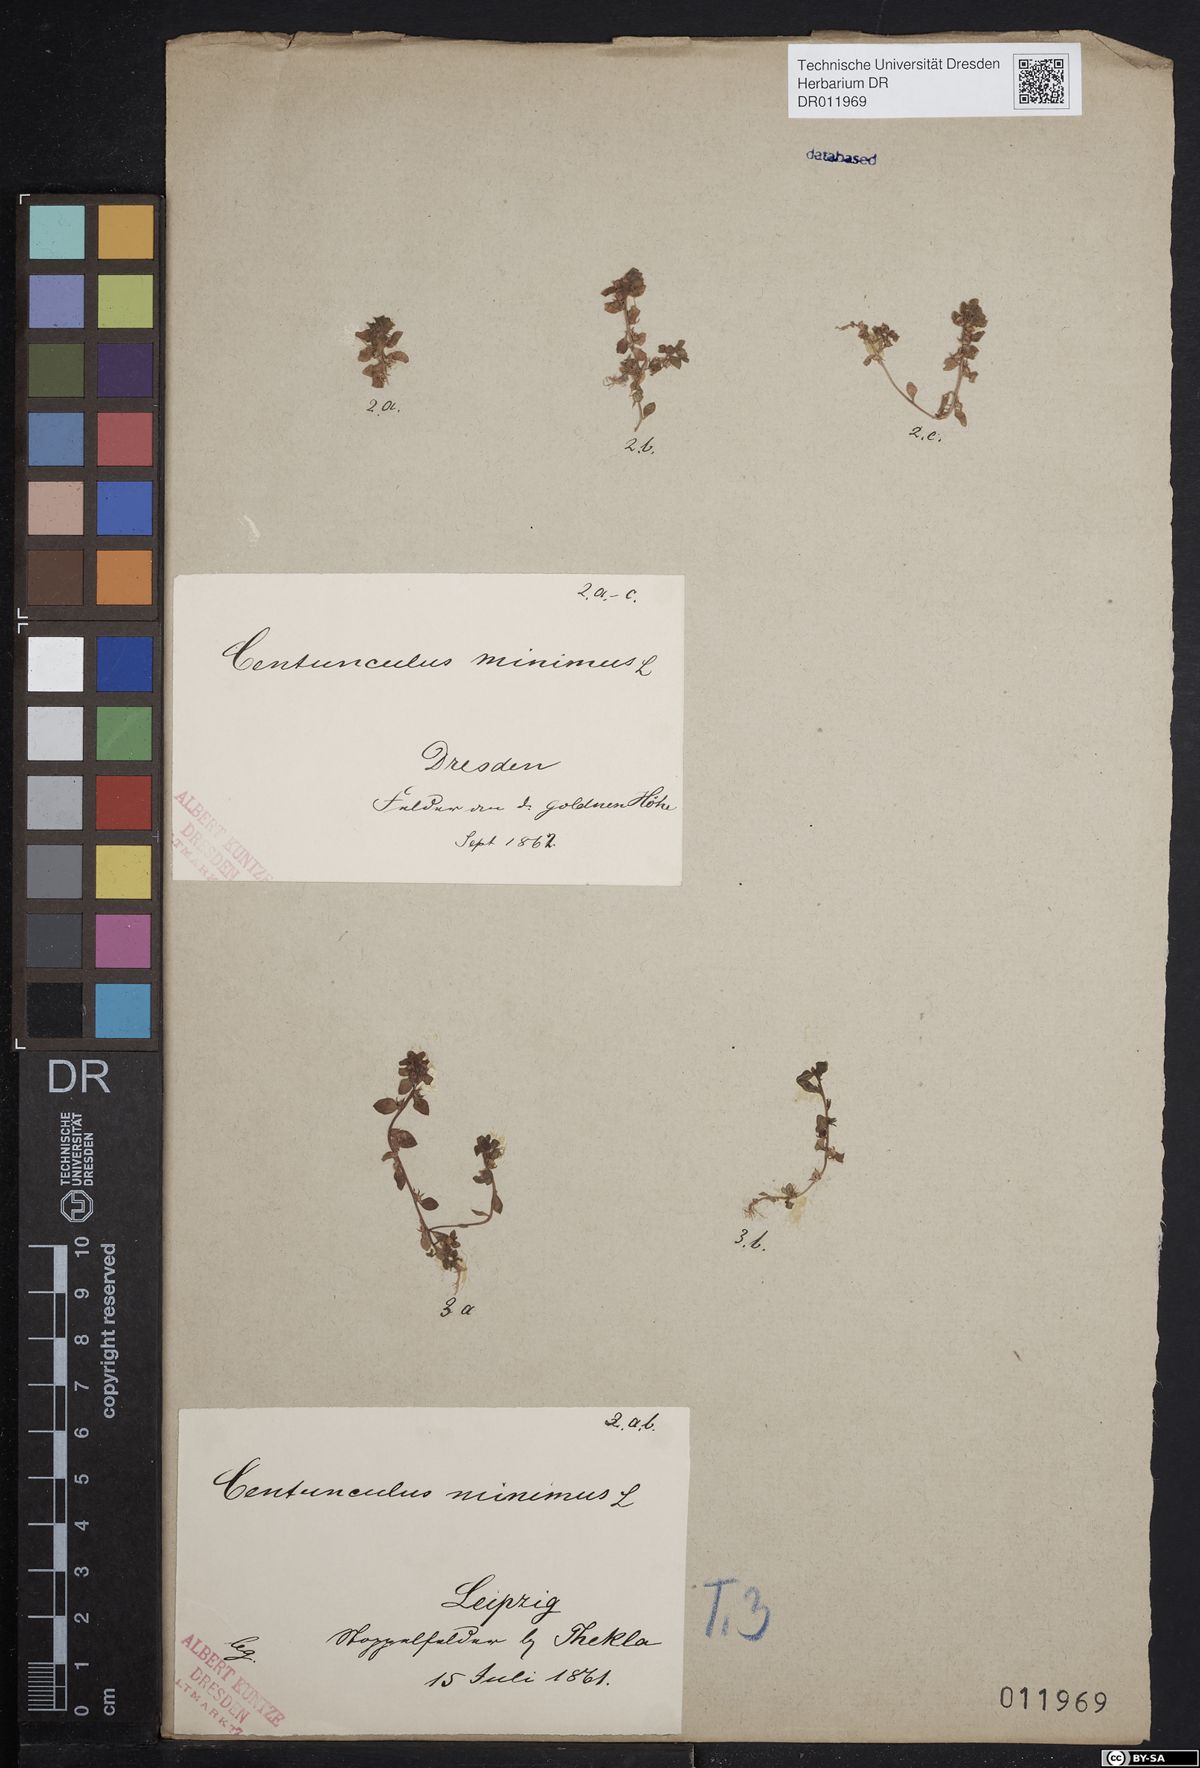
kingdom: Plantae
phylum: Tracheophyta
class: Magnoliopsida
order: Ericales
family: Primulaceae
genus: Lysimachia
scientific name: Lysimachia minima
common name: Chaffweed
